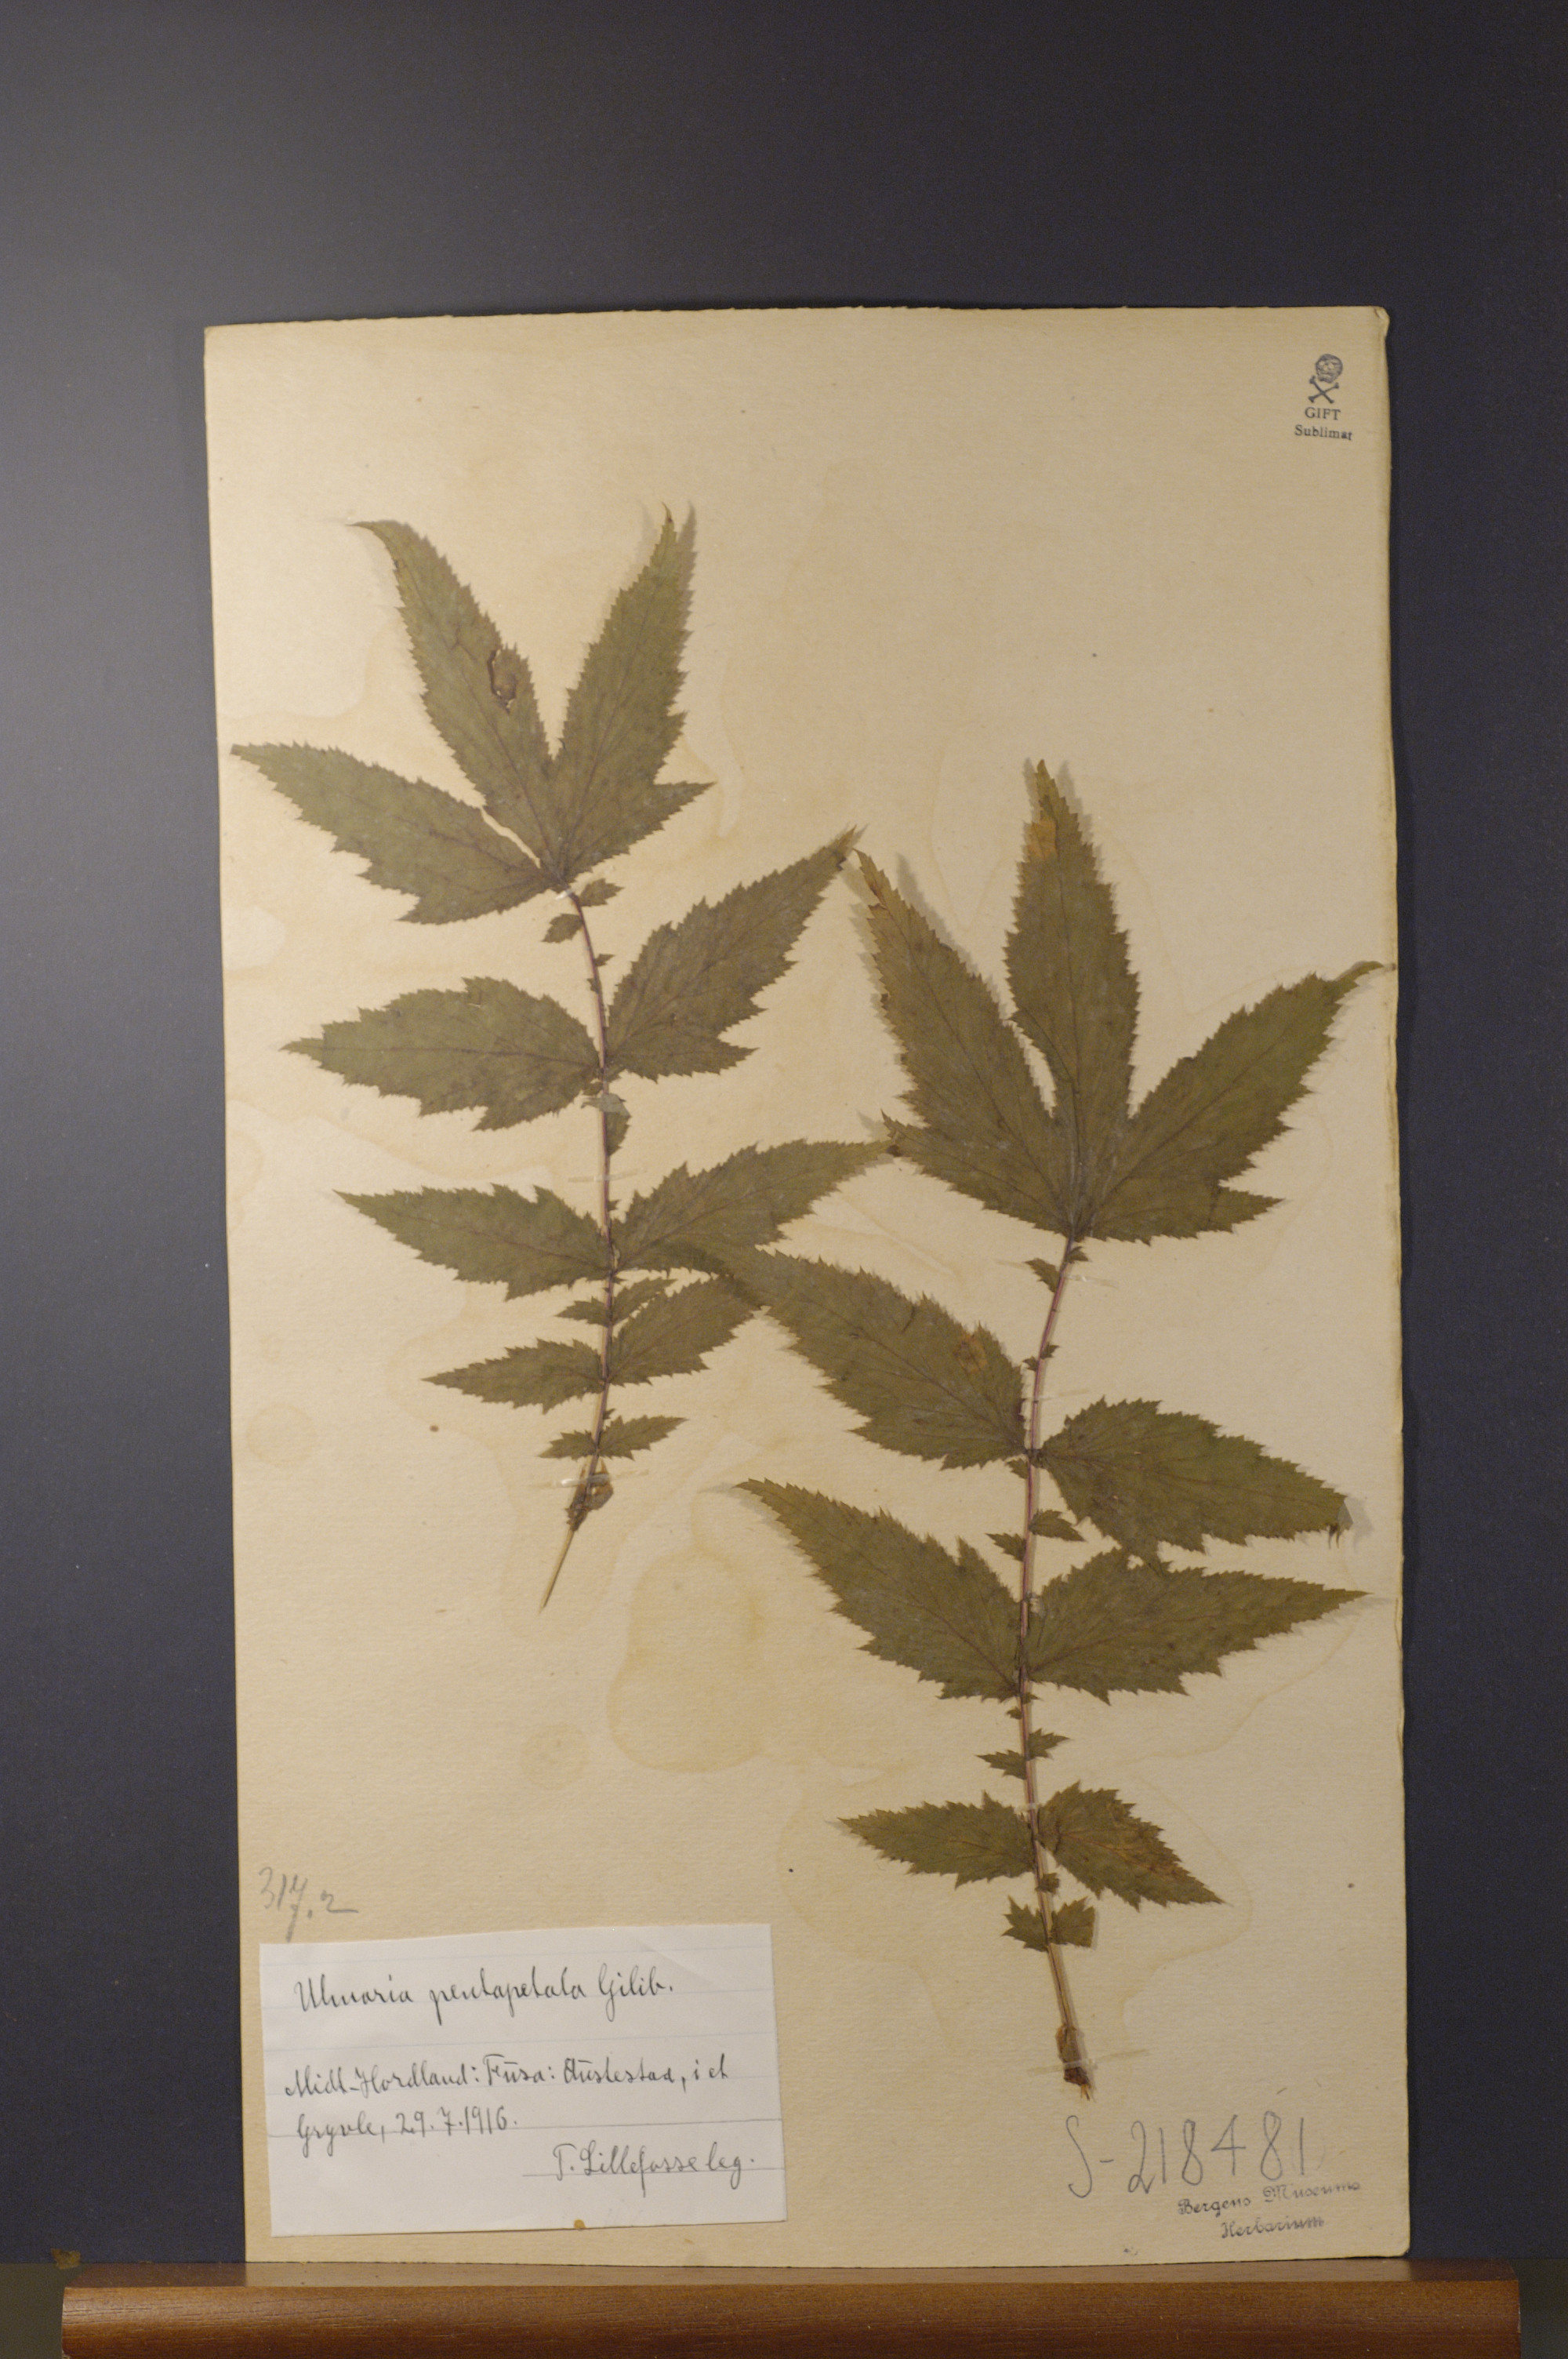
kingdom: Plantae
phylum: Tracheophyta
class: Magnoliopsida
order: Rosales
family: Rosaceae
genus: Filipendula
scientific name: Filipendula ulmaria
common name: Meadowsweet
